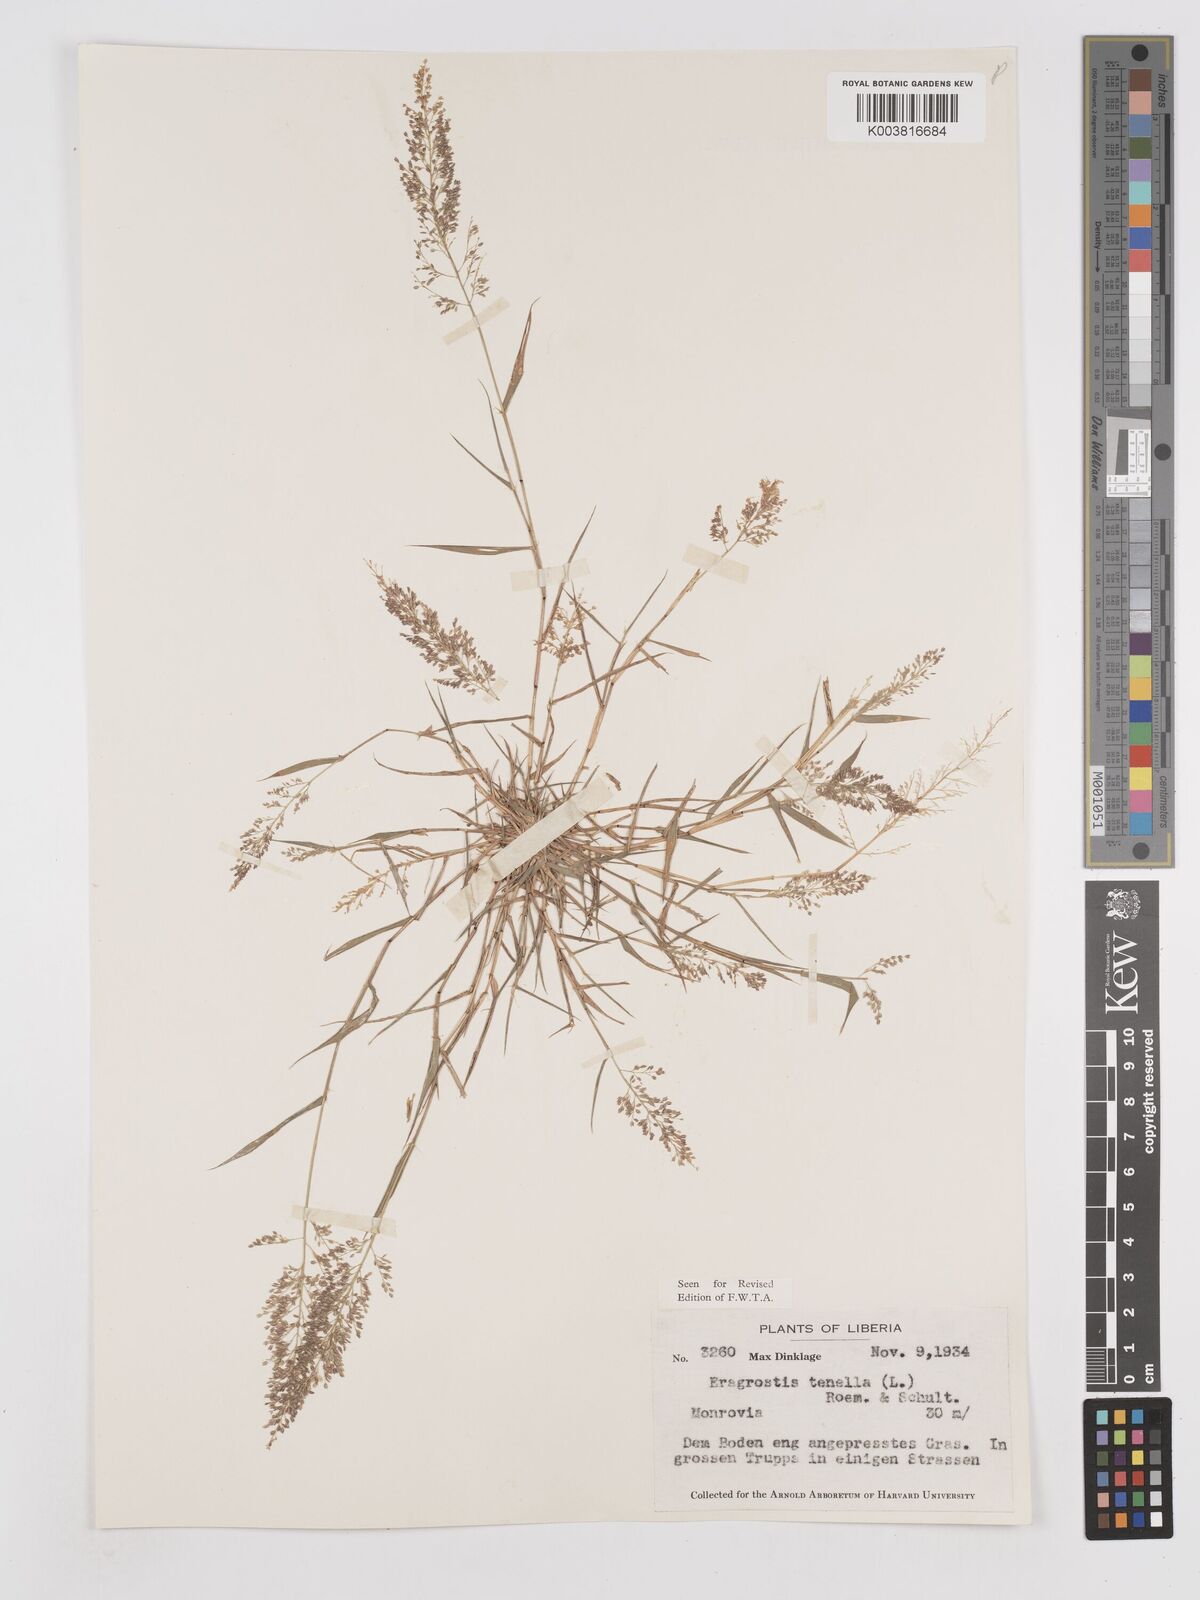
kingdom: Plantae
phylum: Tracheophyta
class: Liliopsida
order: Poales
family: Poaceae
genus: Eragrostis
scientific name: Eragrostis tenella
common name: Japanese lovegrass
